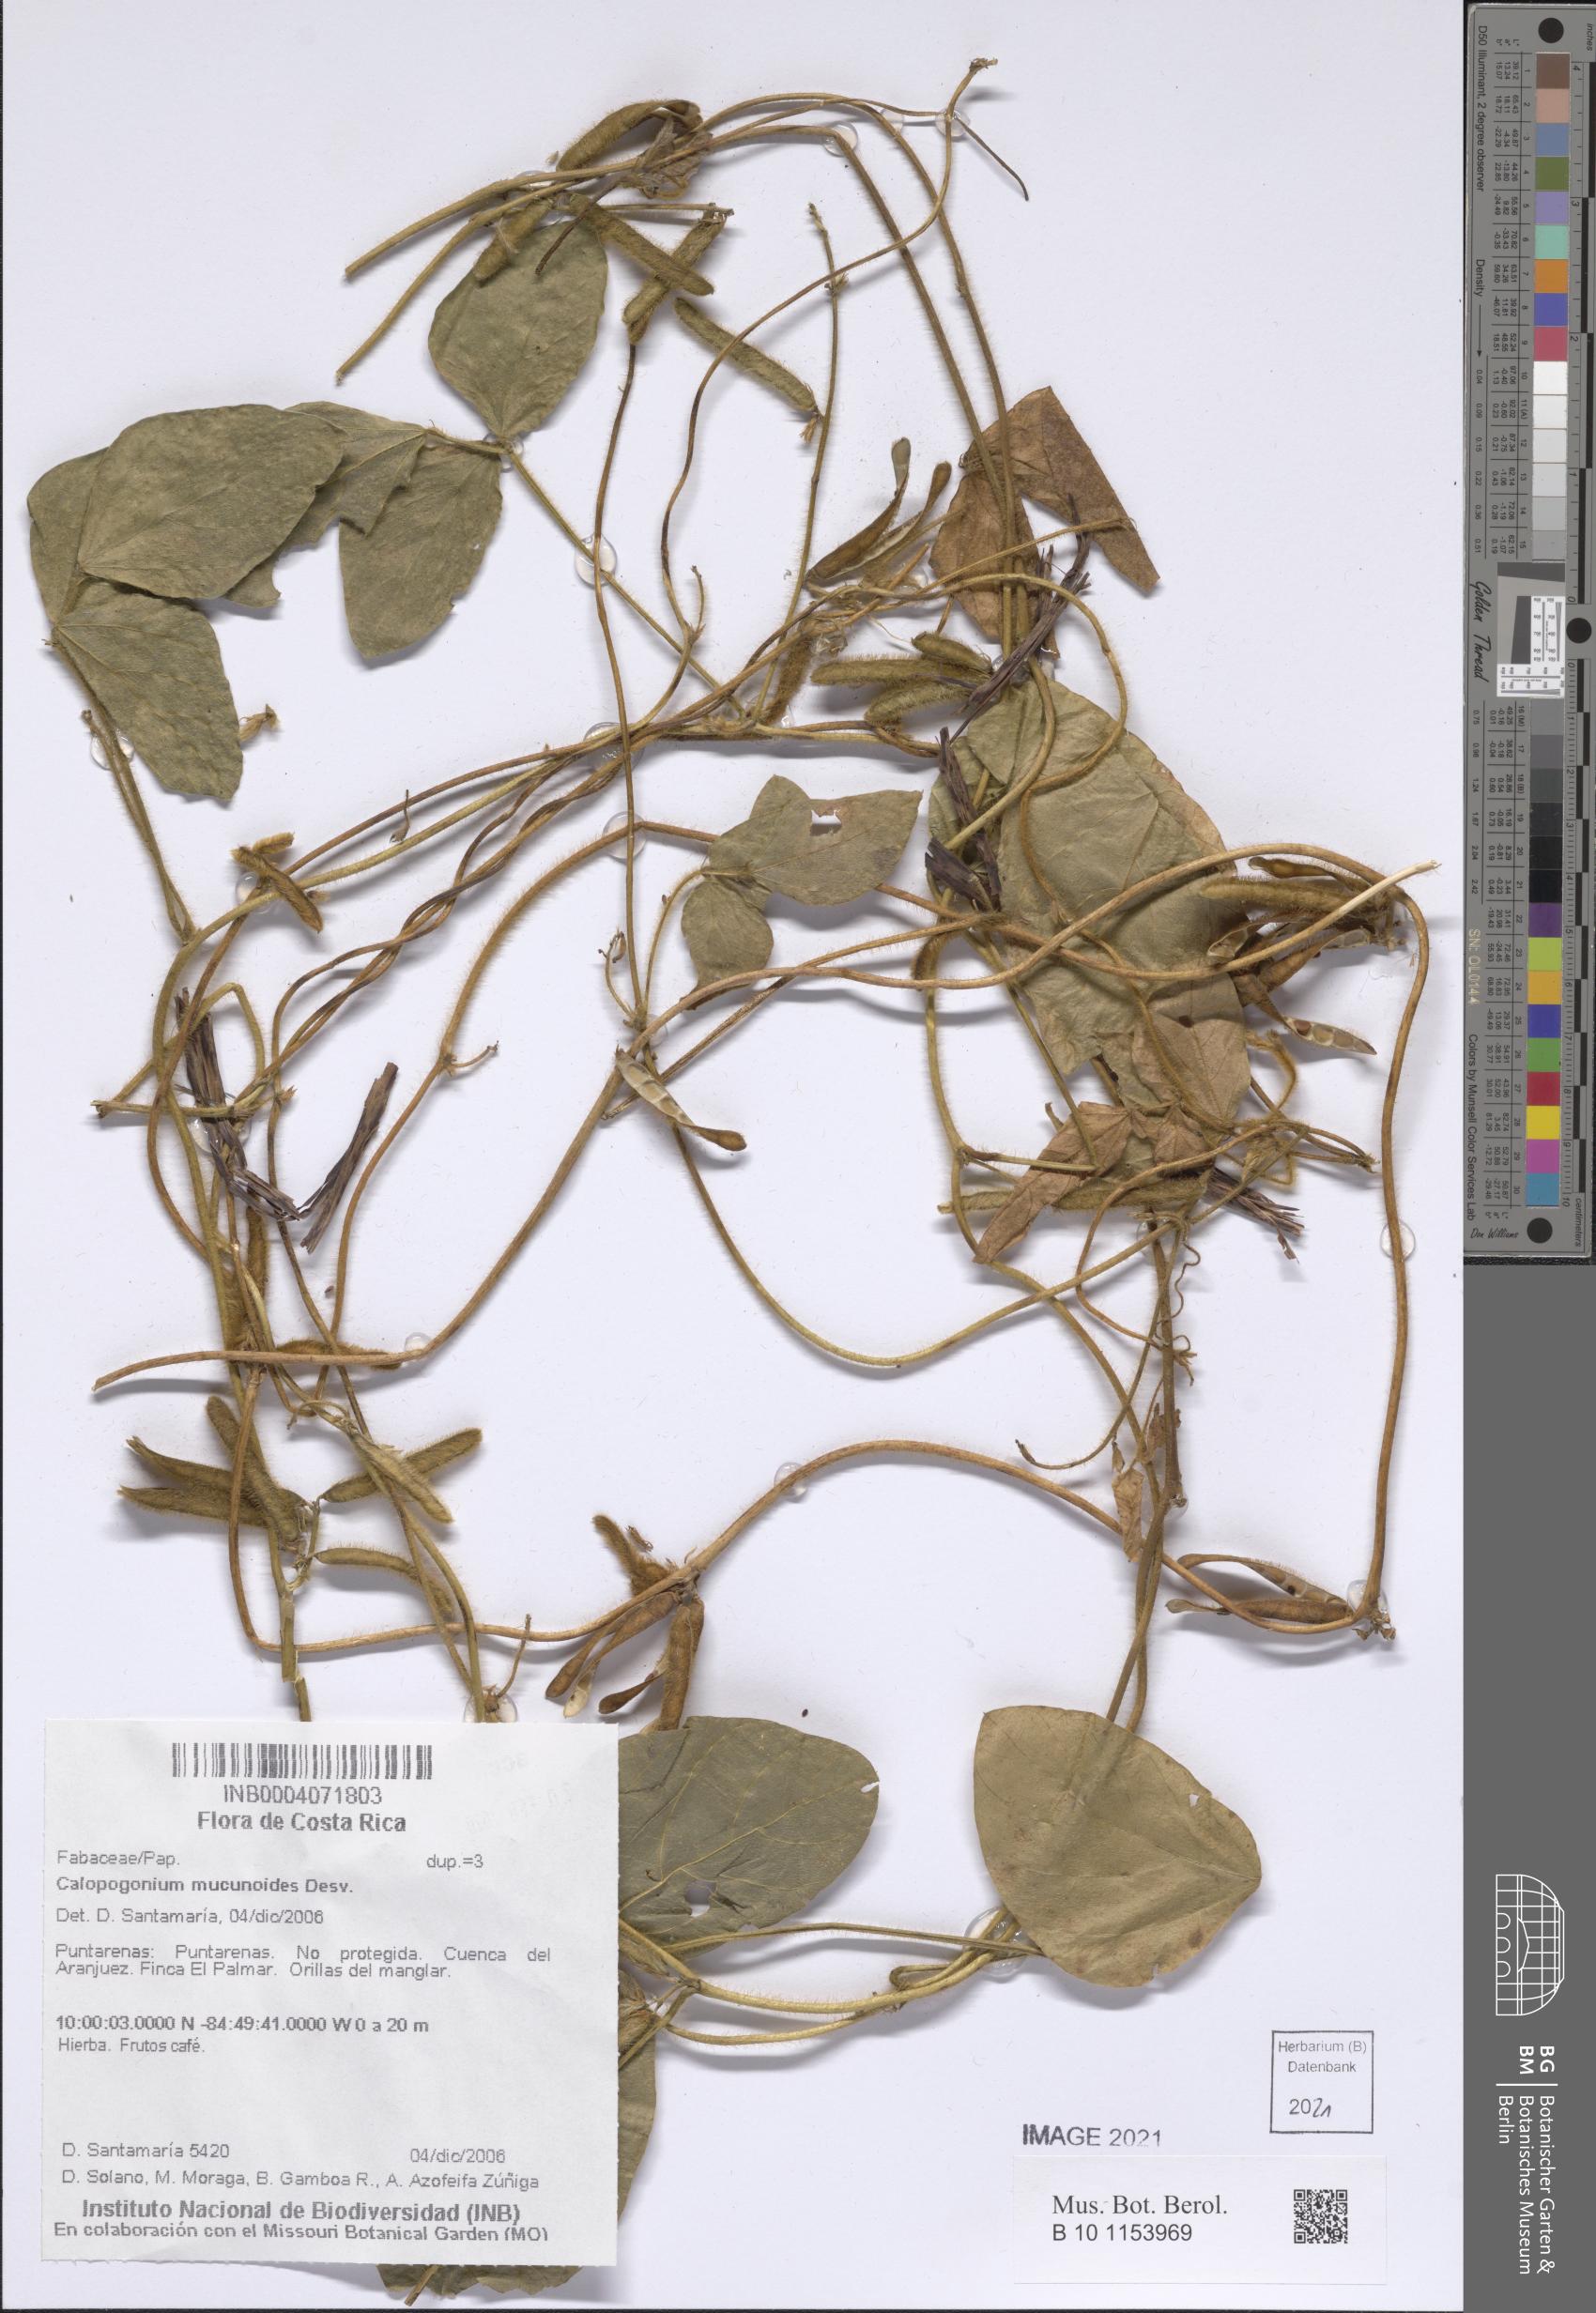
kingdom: Plantae
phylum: Tracheophyta
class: Magnoliopsida
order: Fabales
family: Fabaceae
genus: Calopogonium
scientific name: Calopogonium mucunoides
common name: Calopo
